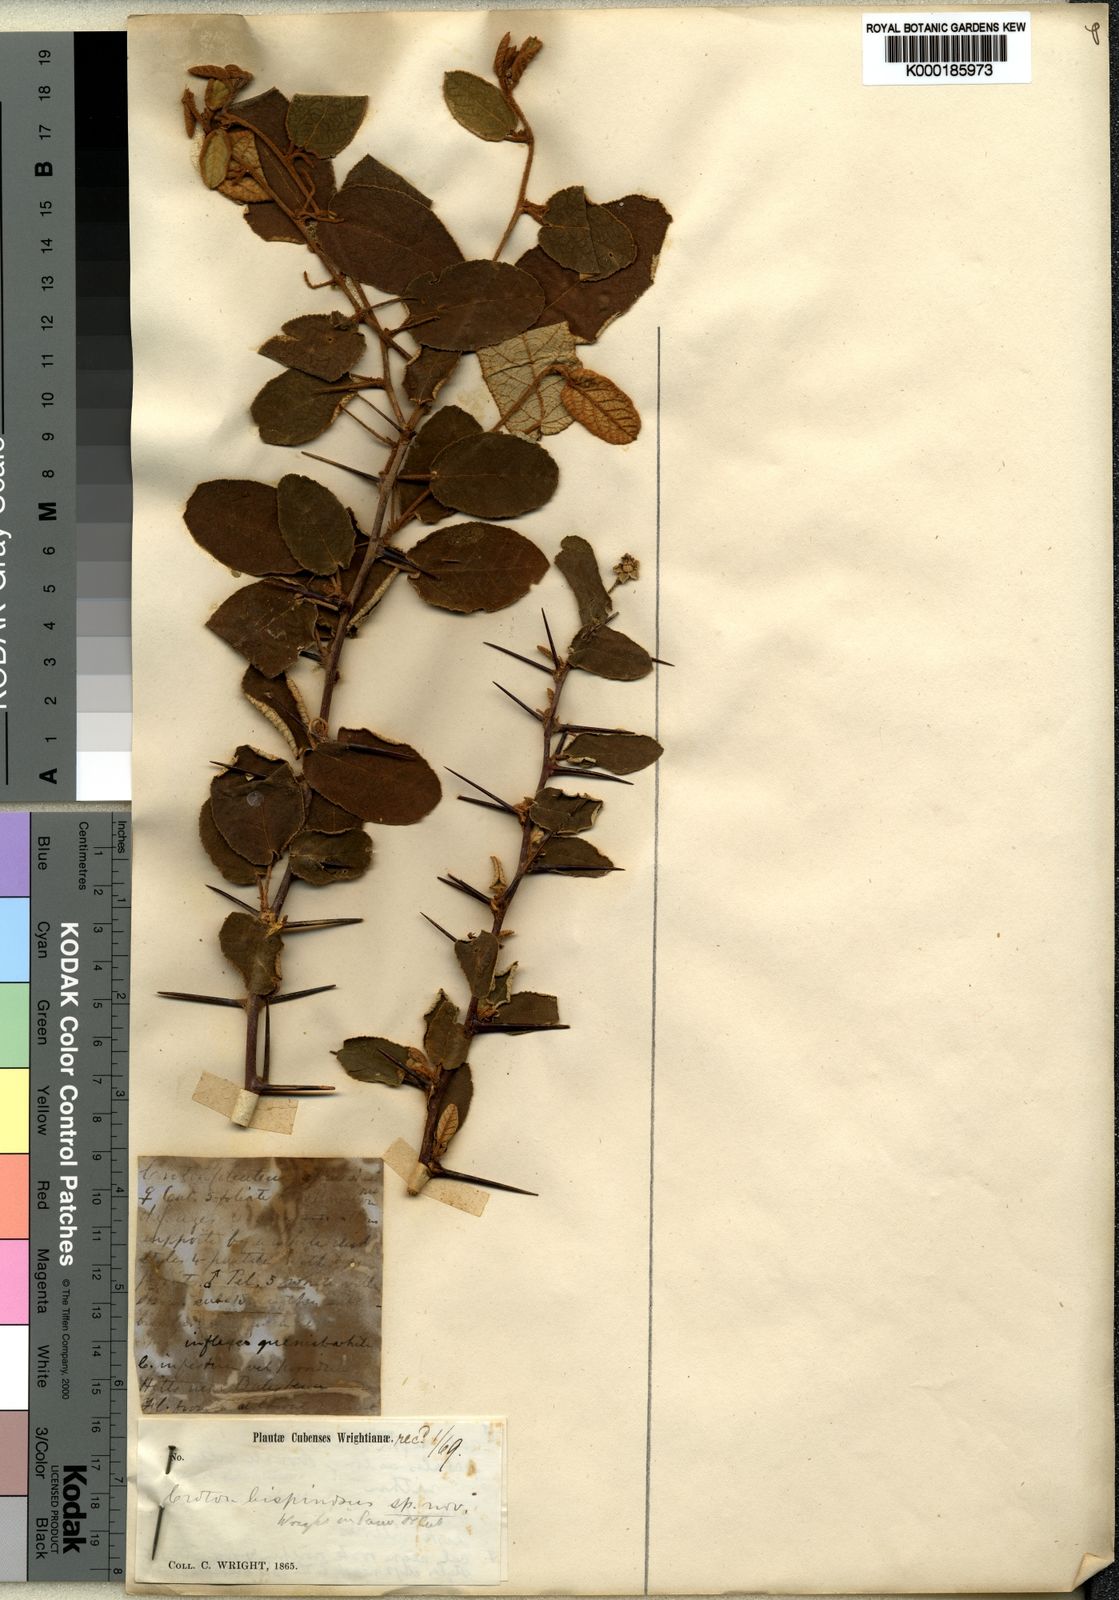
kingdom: Plantae
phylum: Tracheophyta
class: Magnoliopsida
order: Malpighiales
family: Euphorbiaceae
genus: Croton
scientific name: Croton bispinosus
